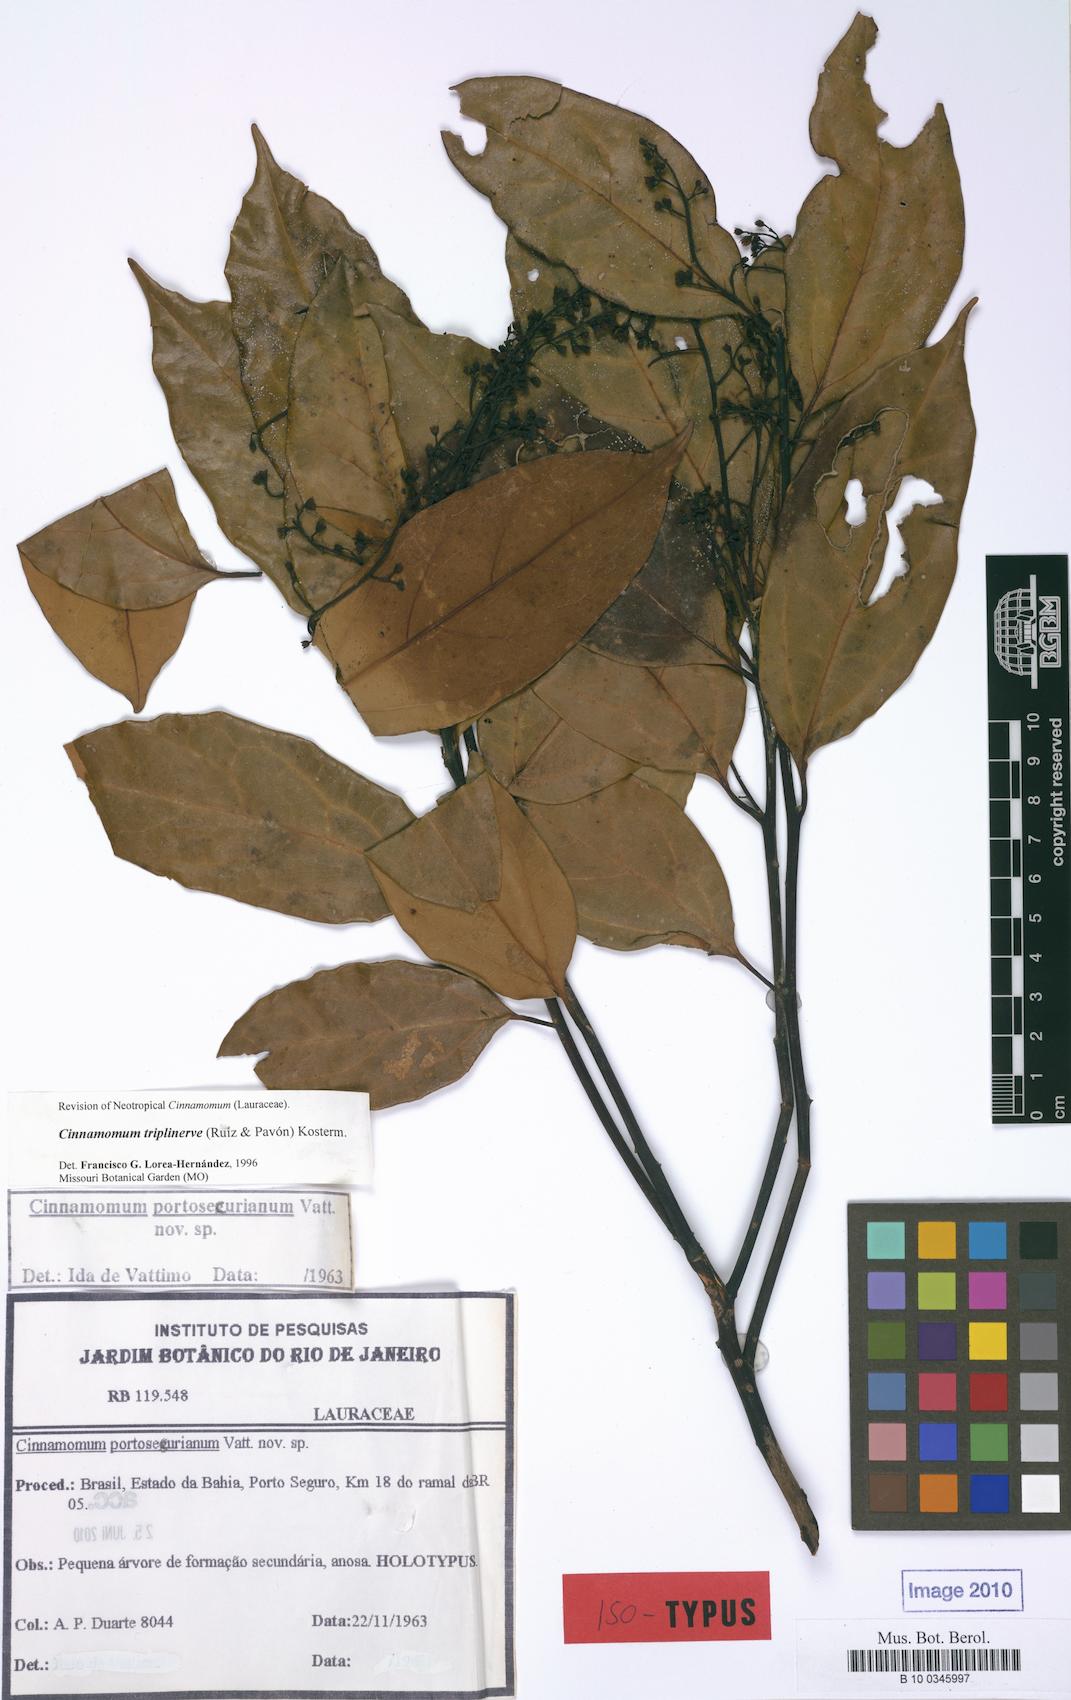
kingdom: Plantae
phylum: Tracheophyta
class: Magnoliopsida
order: Laurales
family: Lauraceae
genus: Aiouea
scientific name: Aiouea montana
